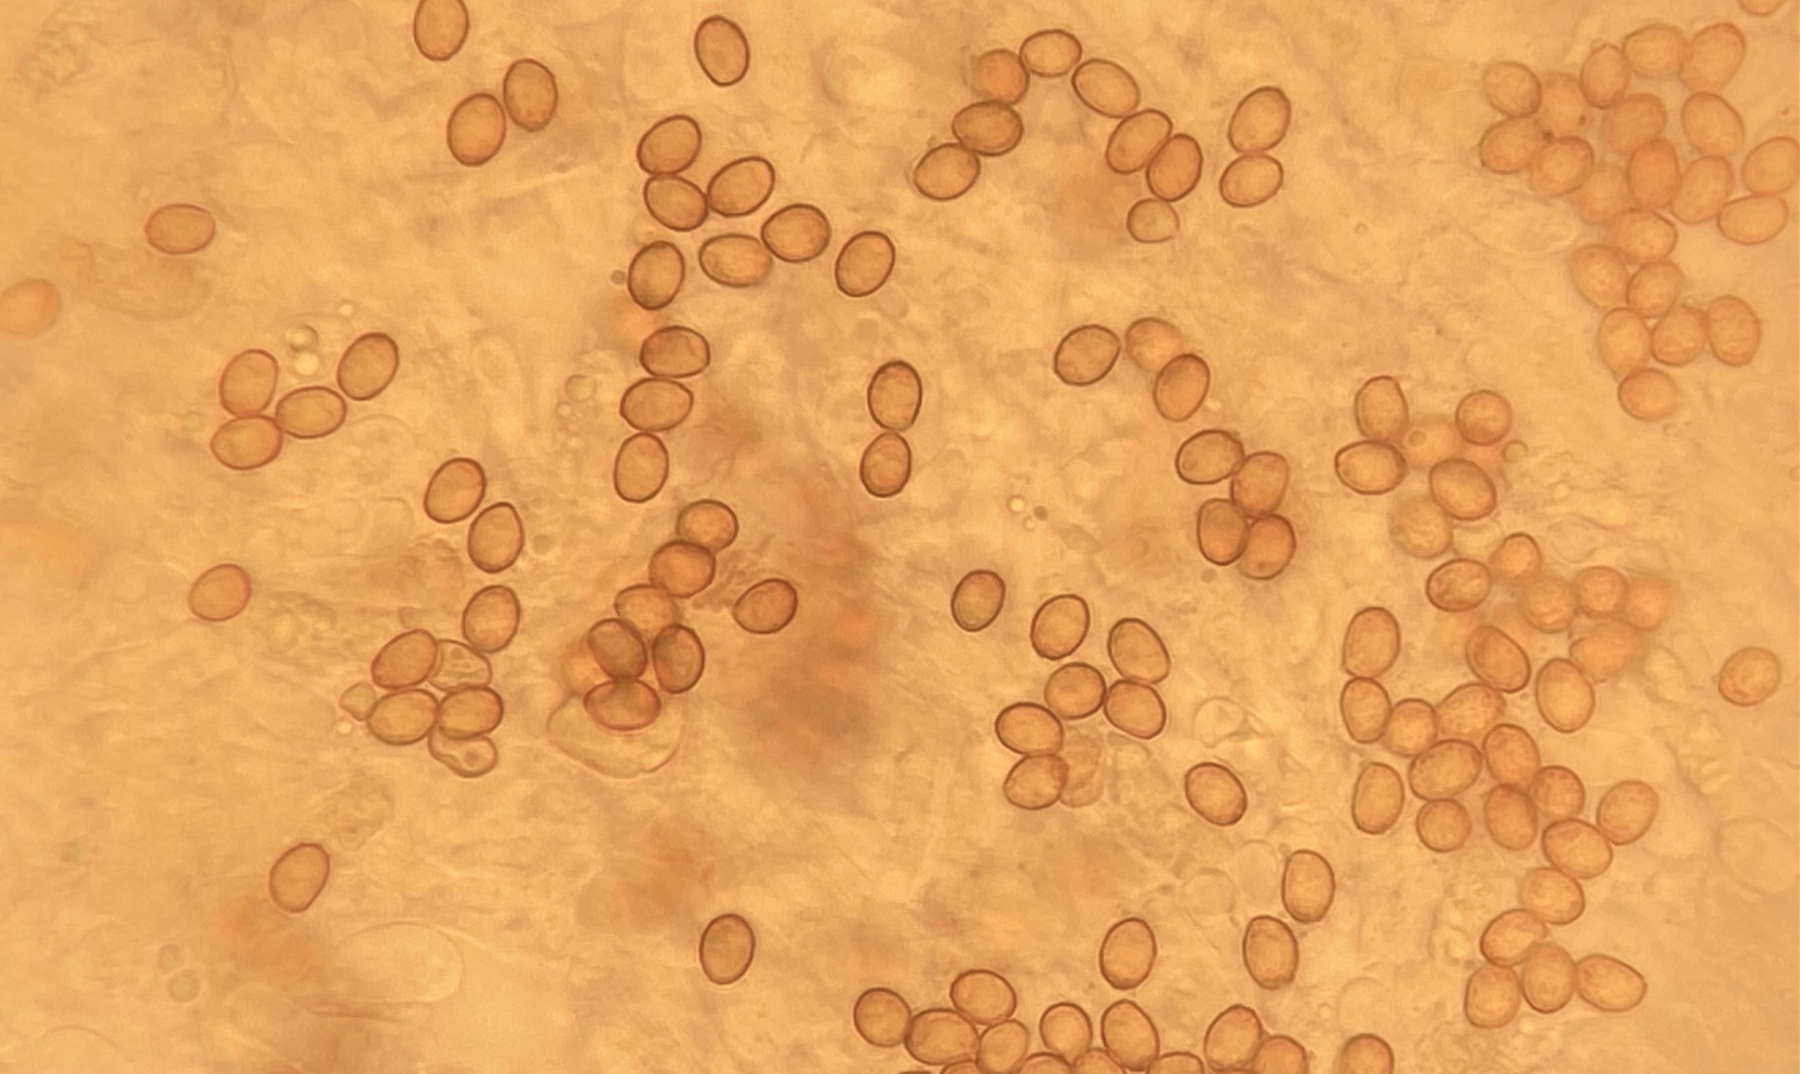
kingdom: Fungi
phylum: Basidiomycota
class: Agaricomycetes
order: Agaricales
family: Cortinariaceae
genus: Cortinarius
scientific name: Cortinarius comptulus
